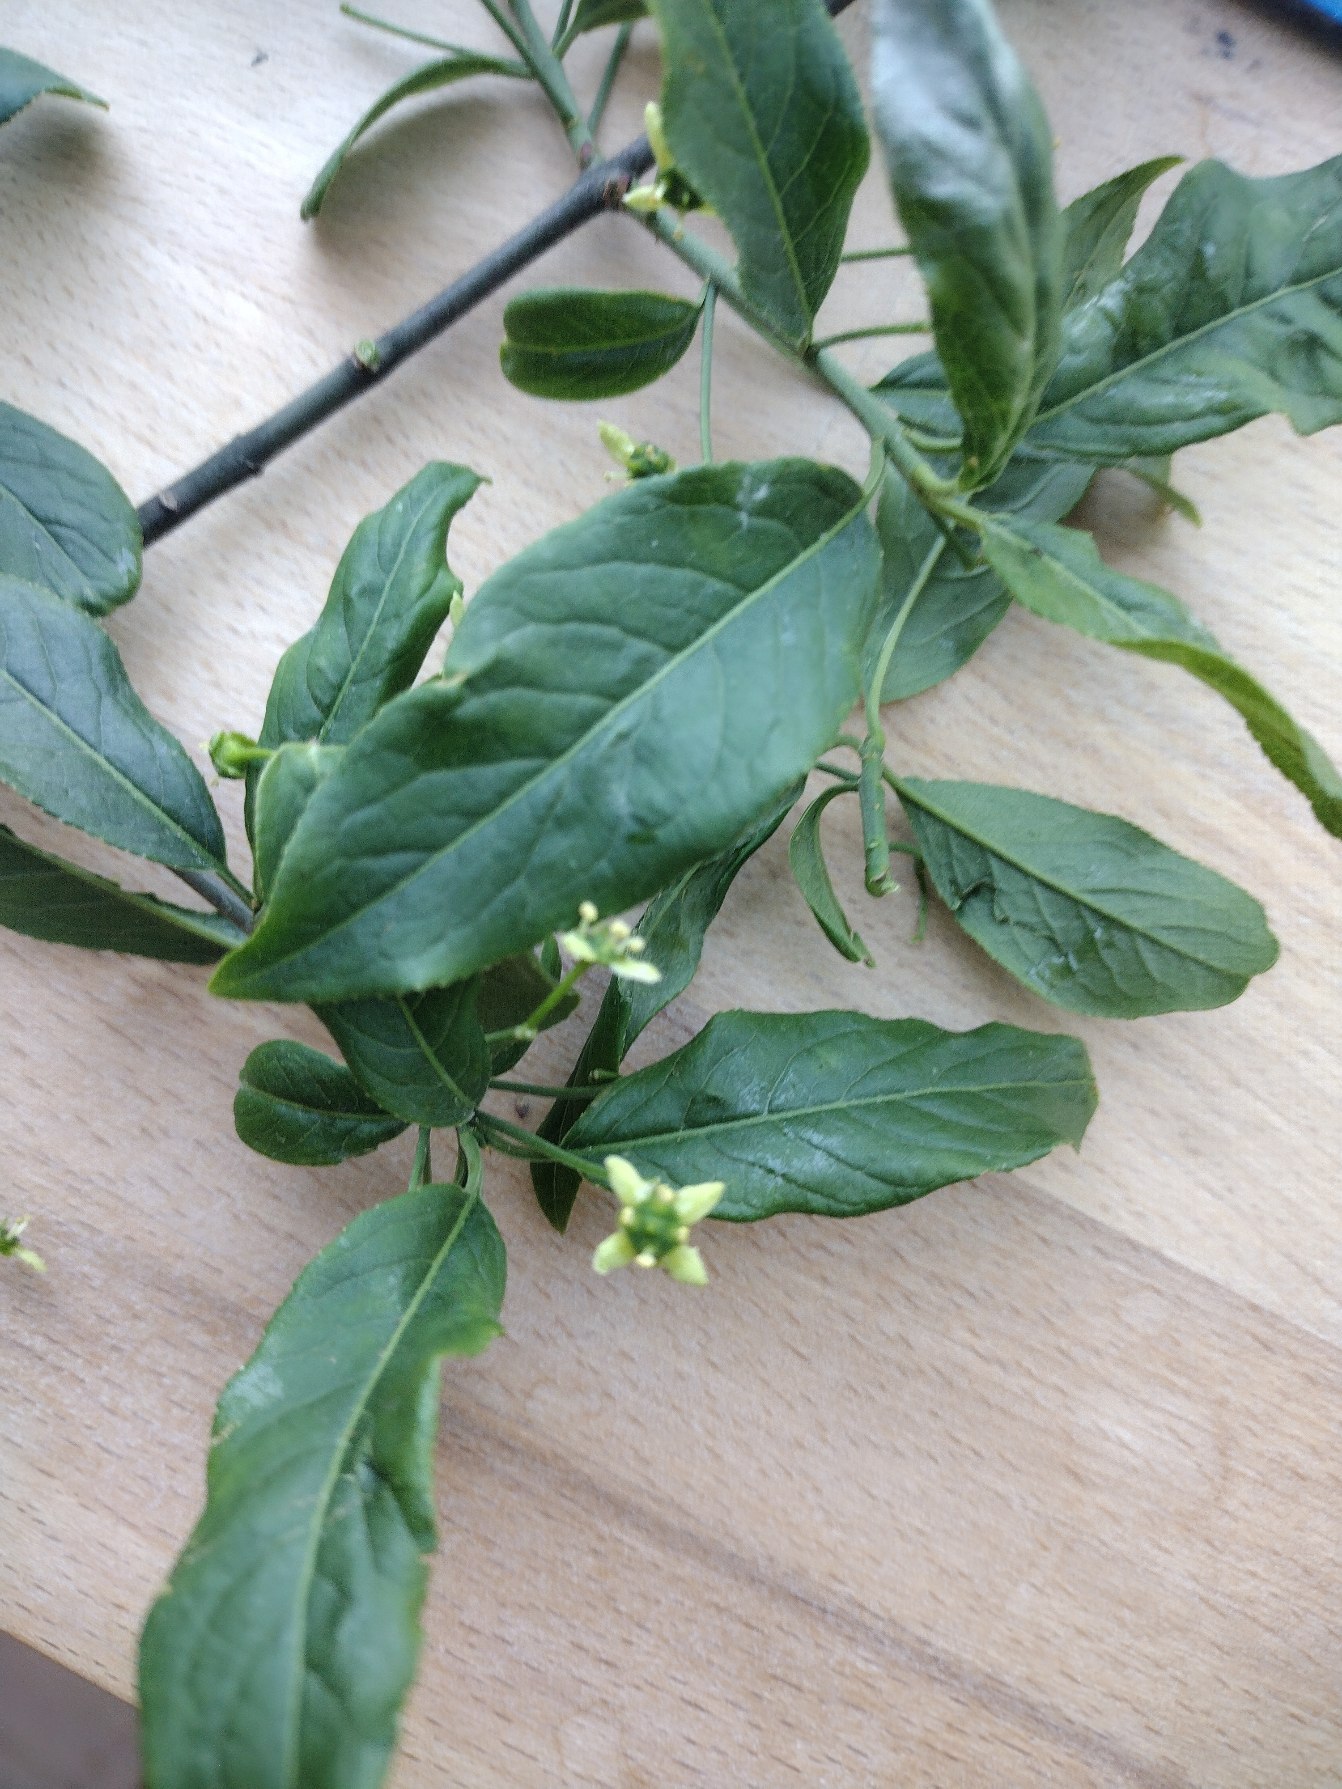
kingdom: Plantae
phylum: Tracheophyta
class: Magnoliopsida
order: Celastrales
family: Celastraceae
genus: Euonymus
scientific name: Euonymus europaeus
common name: Benved
